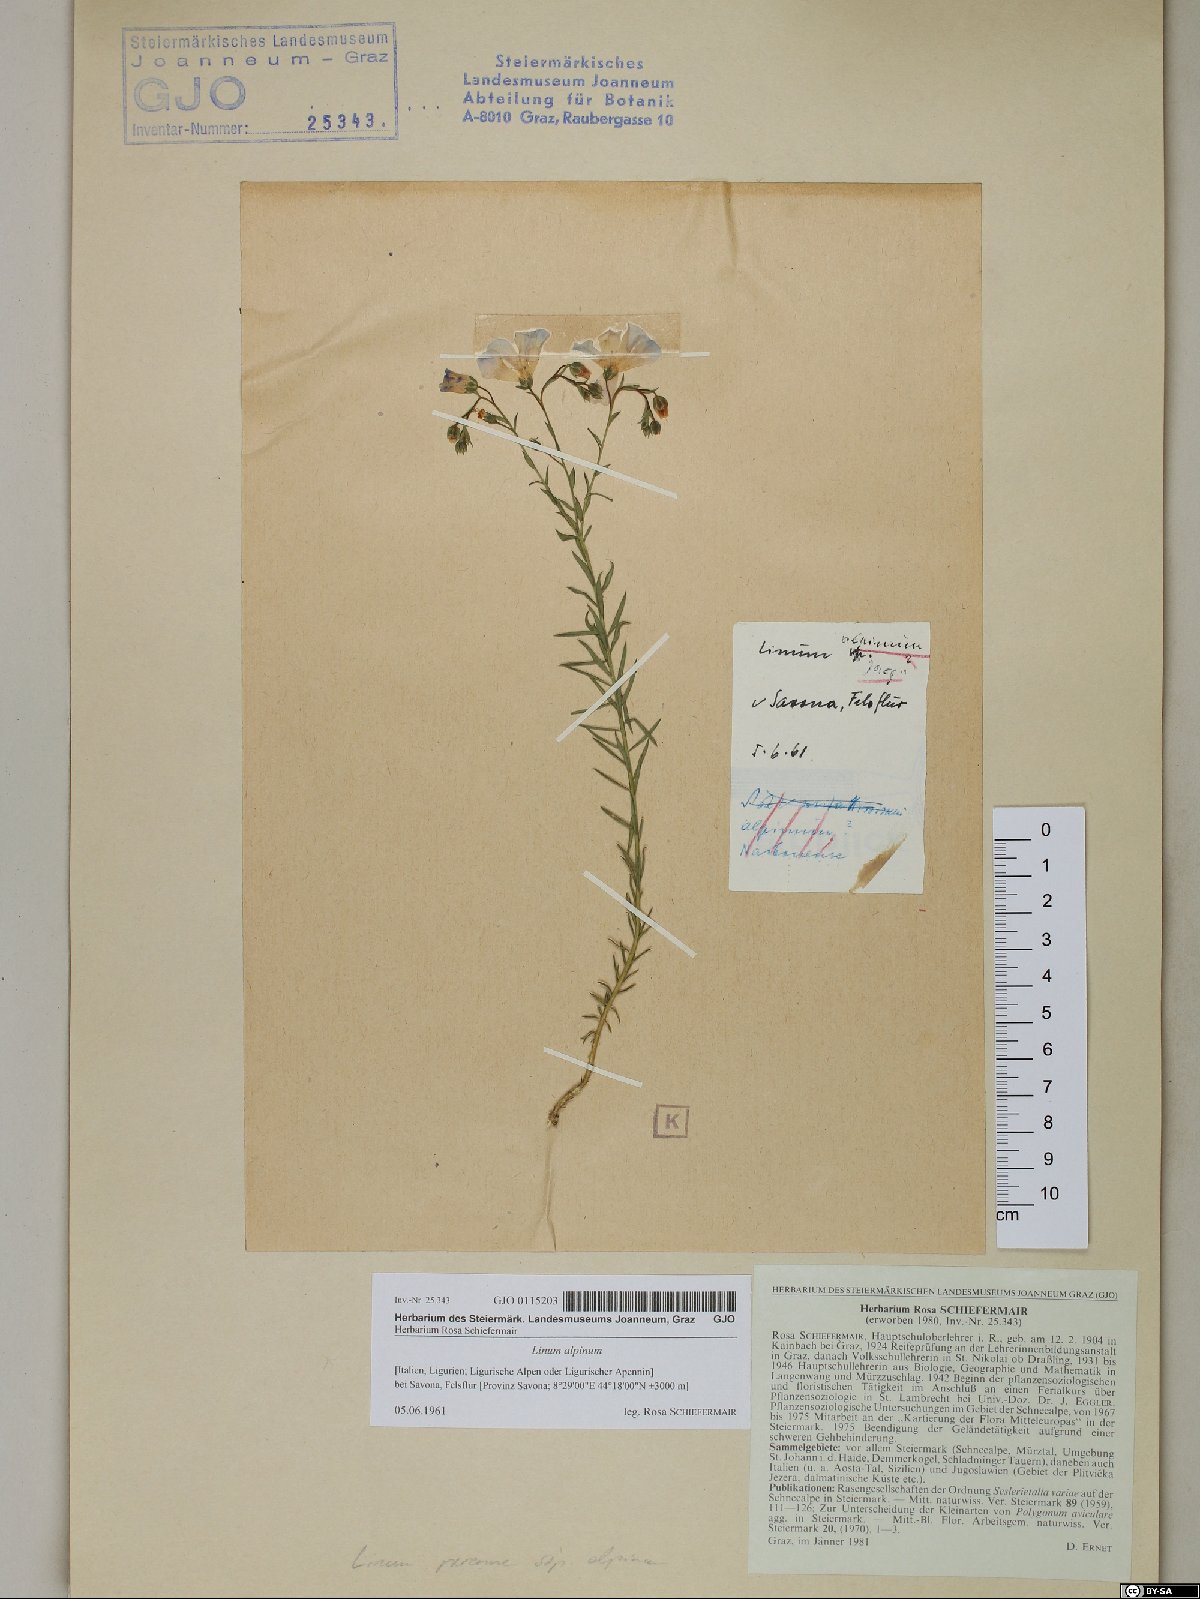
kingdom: Plantae
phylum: Tracheophyta
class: Magnoliopsida
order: Malpighiales
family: Linaceae
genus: Linum
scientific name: Linum alpinum
